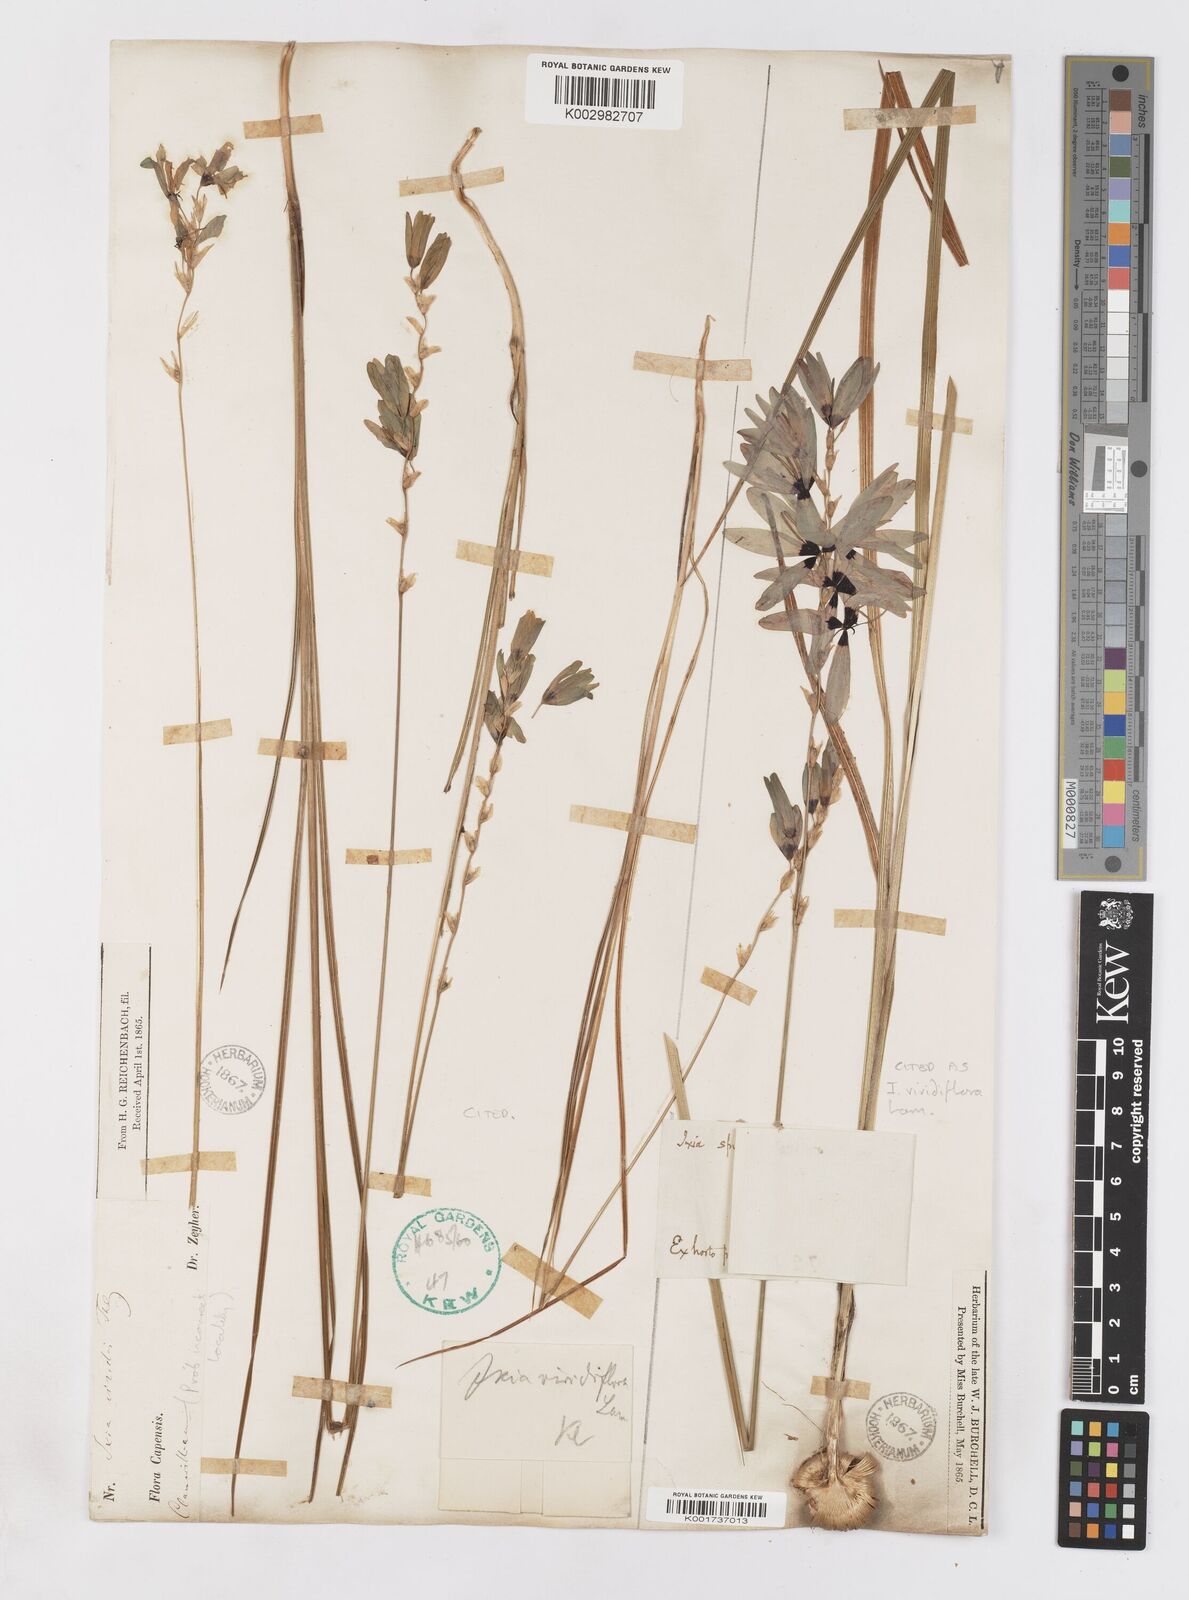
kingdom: Plantae
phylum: Tracheophyta
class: Liliopsida
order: Asparagales
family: Iridaceae
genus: Ixia
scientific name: Ixia viridiflora
